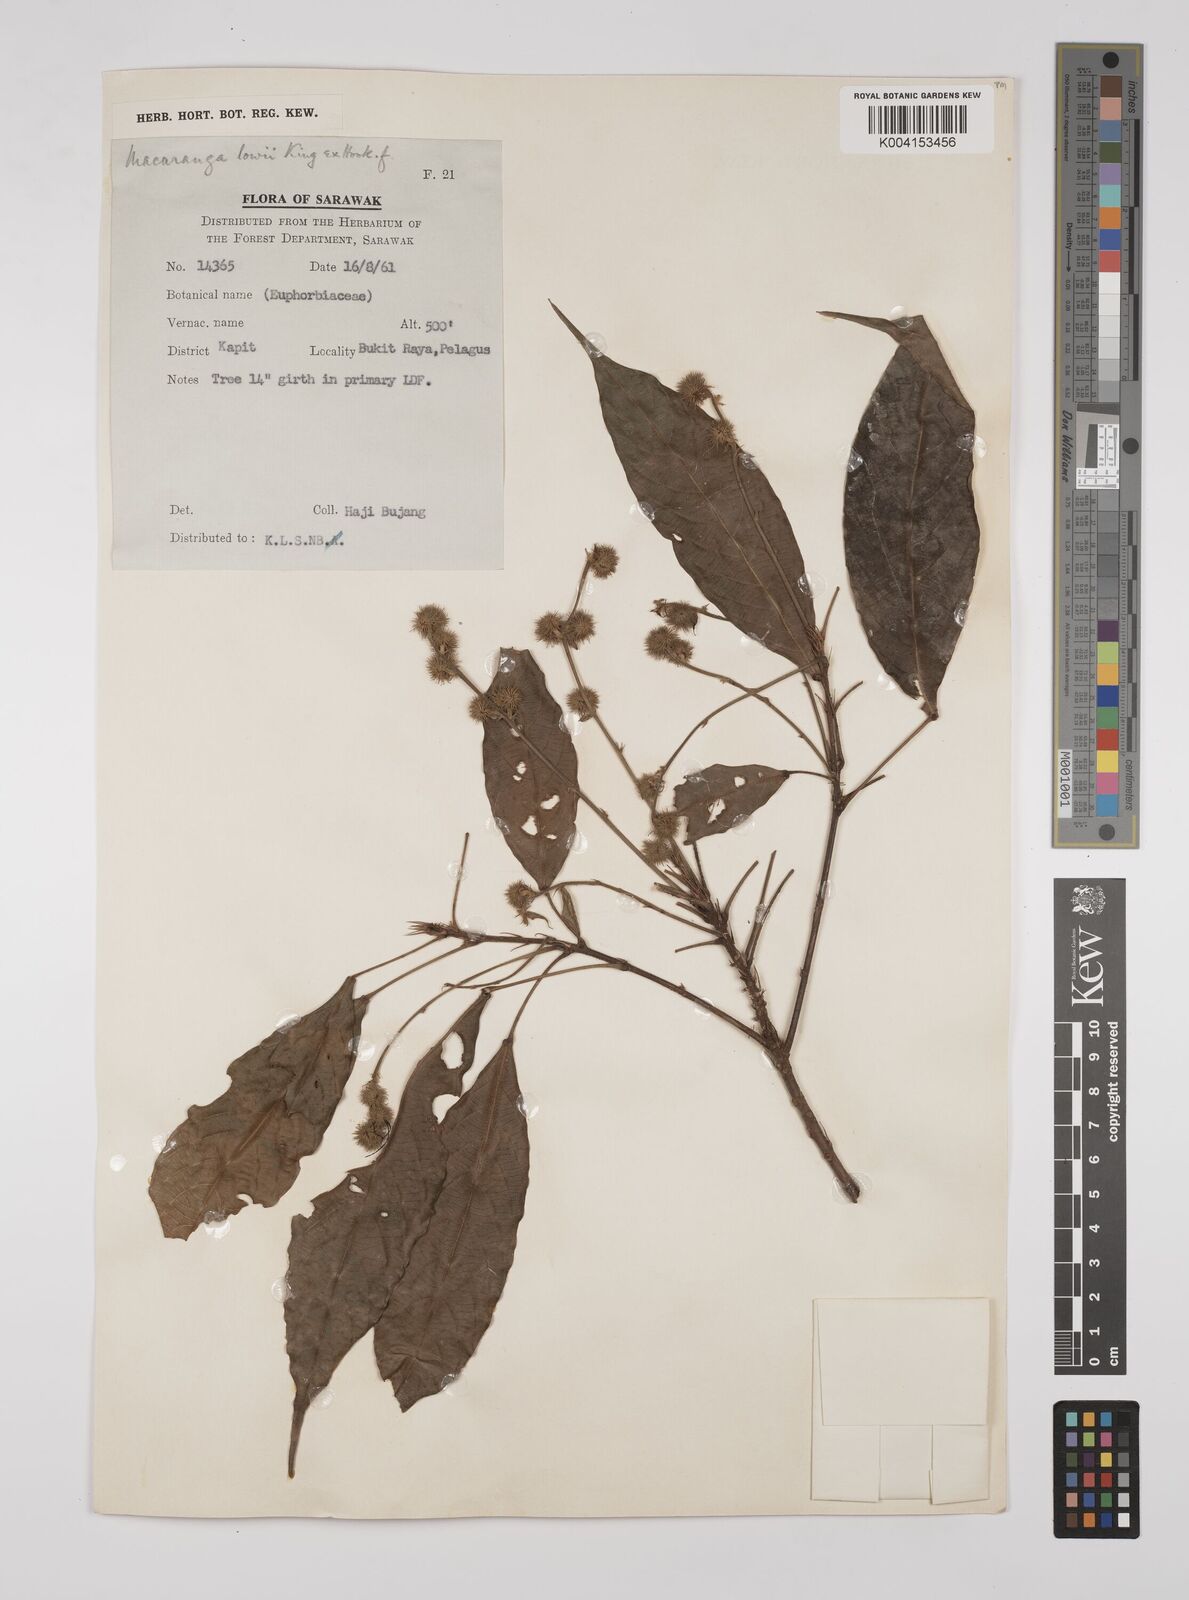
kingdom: Plantae
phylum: Tracheophyta
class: Magnoliopsida
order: Malpighiales
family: Euphorbiaceae
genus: Macaranga
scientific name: Macaranga lowii
